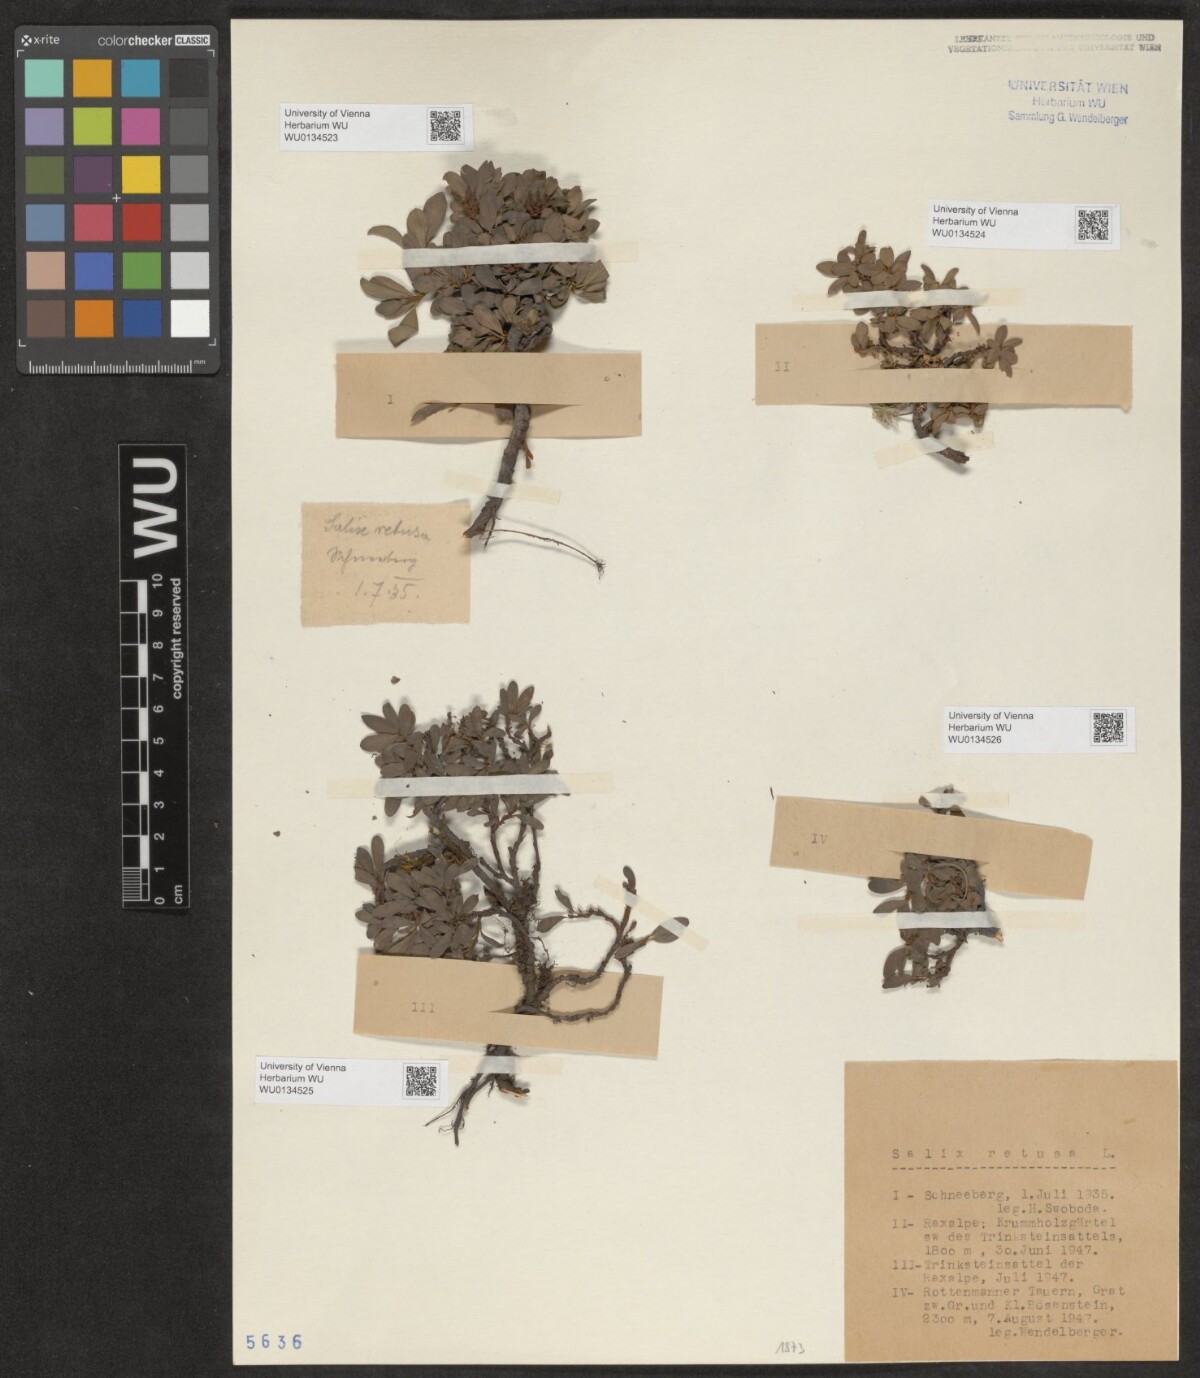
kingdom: Plantae
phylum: Tracheophyta
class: Magnoliopsida
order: Malpighiales
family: Salicaceae
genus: Salix
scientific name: Salix retusa
